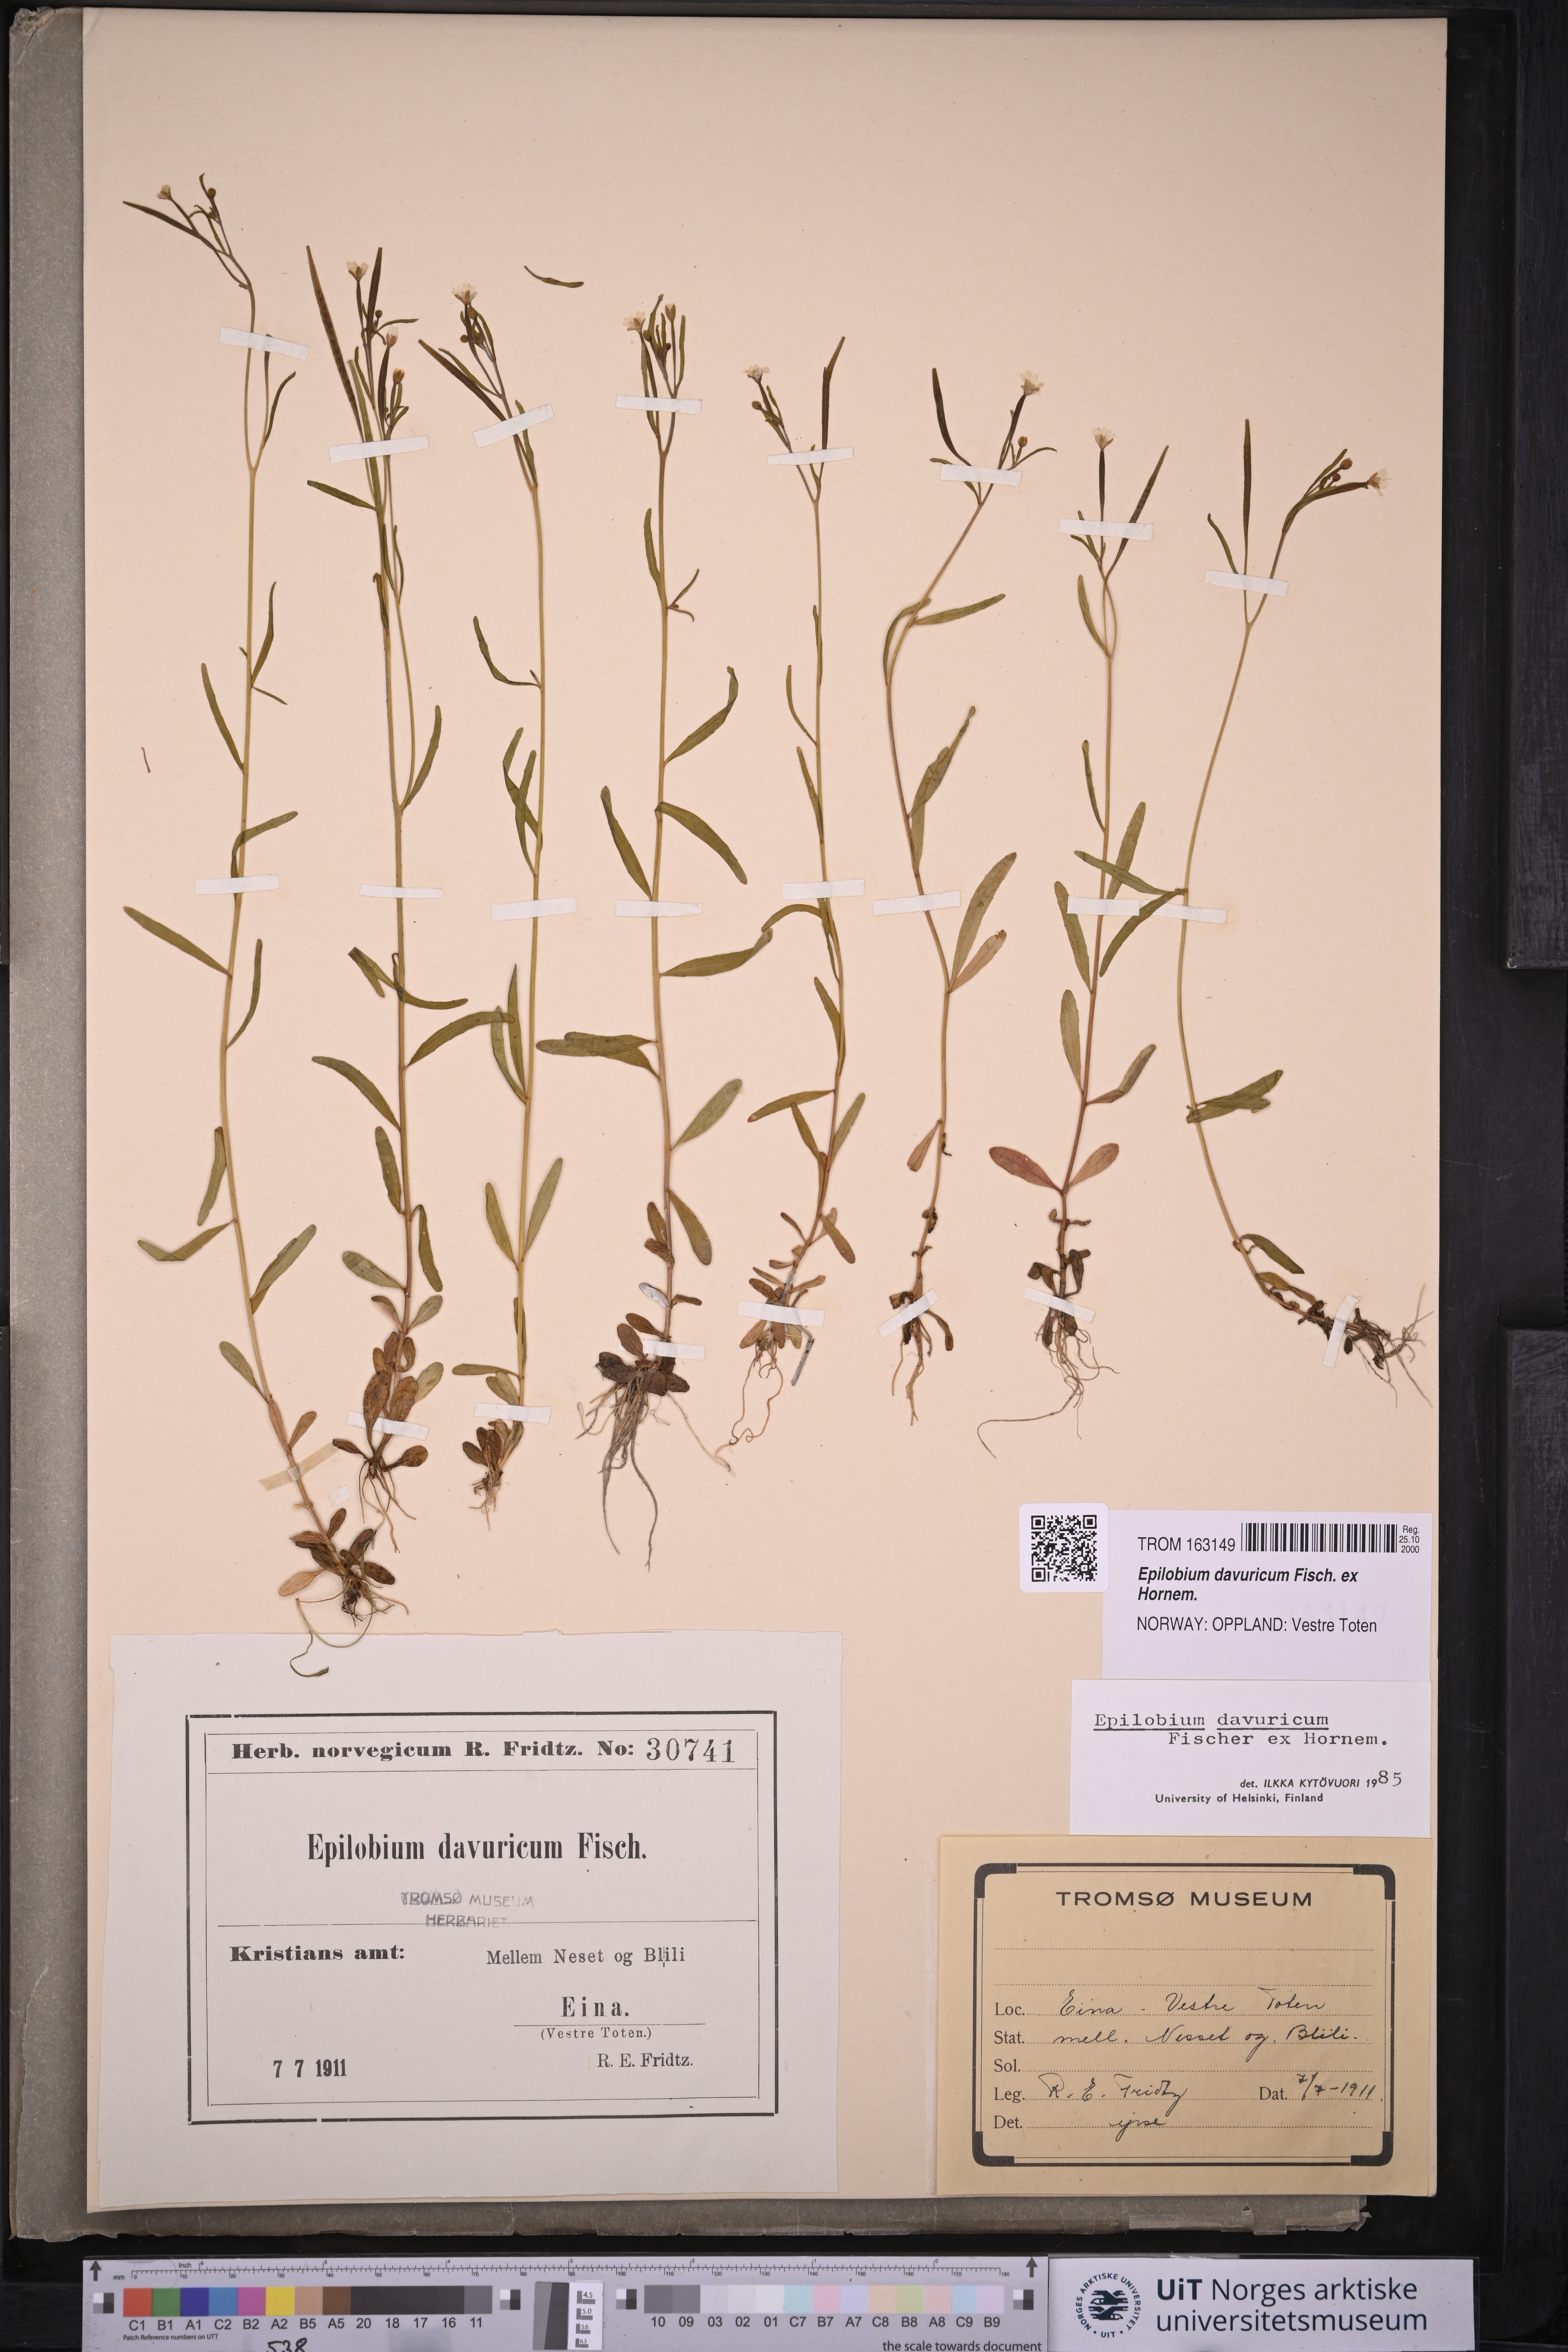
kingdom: Plantae
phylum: Tracheophyta
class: Magnoliopsida
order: Myrtales
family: Onagraceae
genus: Epilobium
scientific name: Epilobium davuricum
